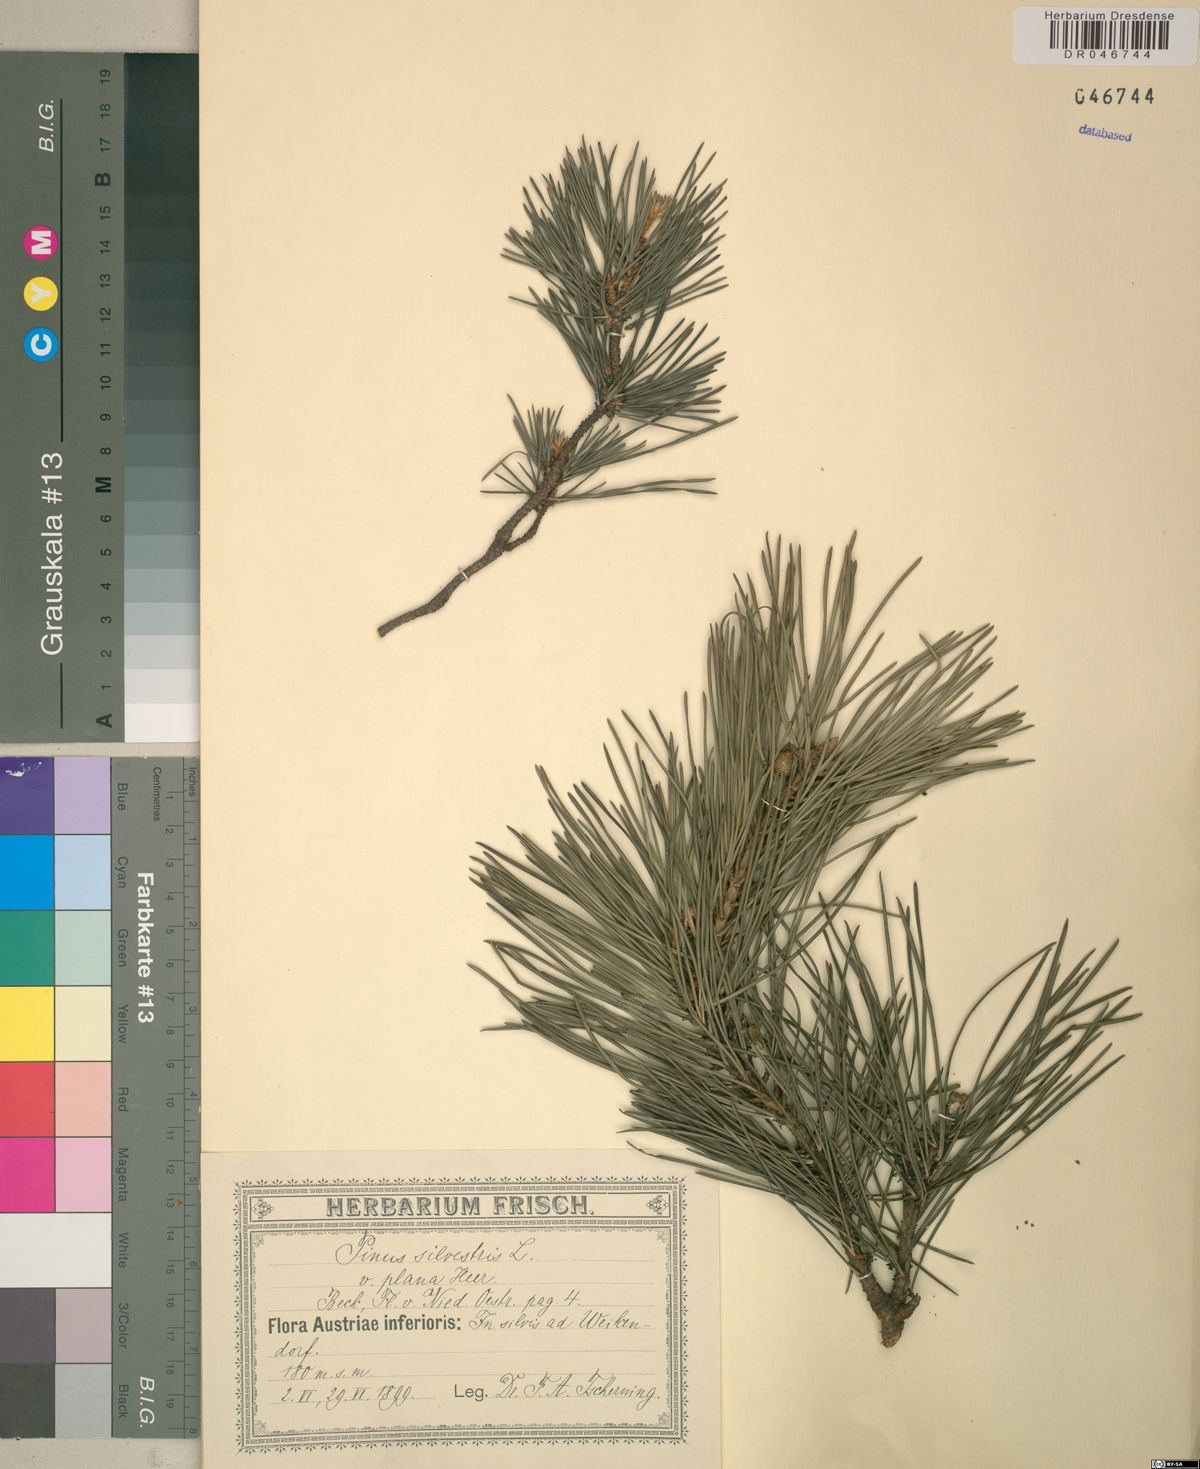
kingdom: Plantae
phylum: Tracheophyta
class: Pinopsida
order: Pinales
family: Pinaceae
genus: Pinus
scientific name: Pinus sylvestris
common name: Scots pine
